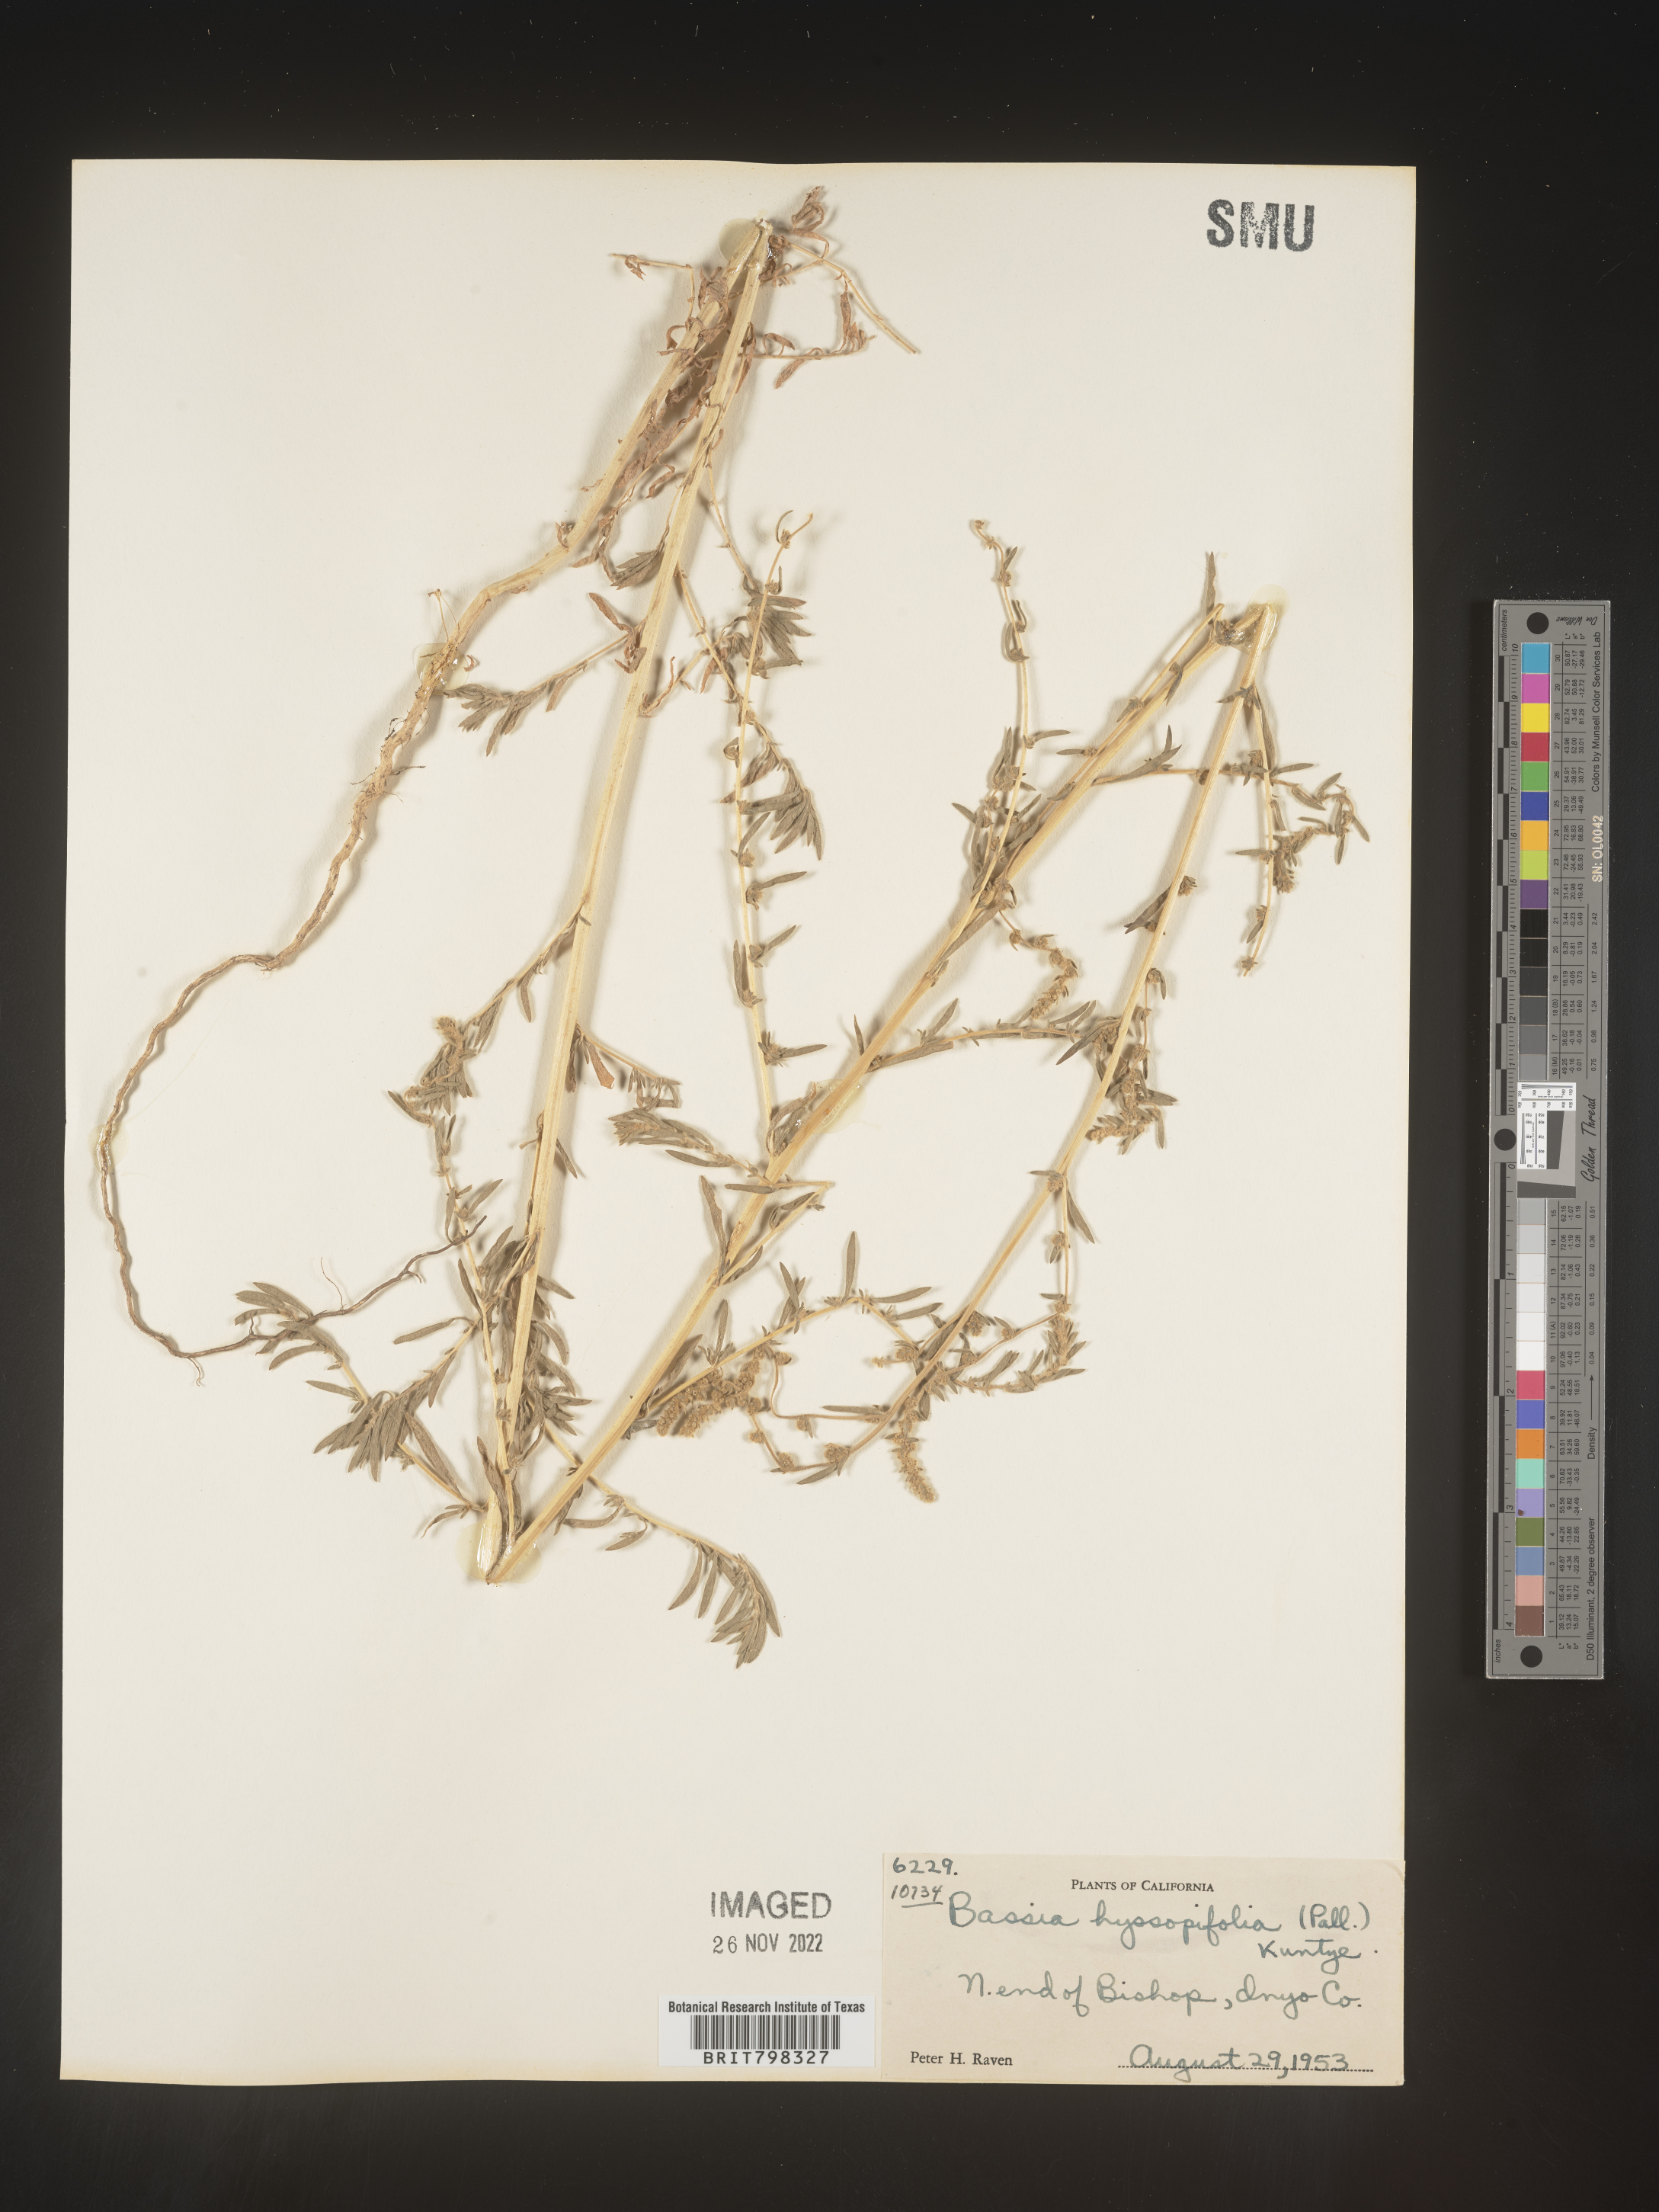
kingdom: Plantae
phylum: Tracheophyta
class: Magnoliopsida
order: Caryophyllales
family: Amaranthaceae
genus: Bassia
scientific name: Bassia hyssopifolia
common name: Fivehorn smotherweed
